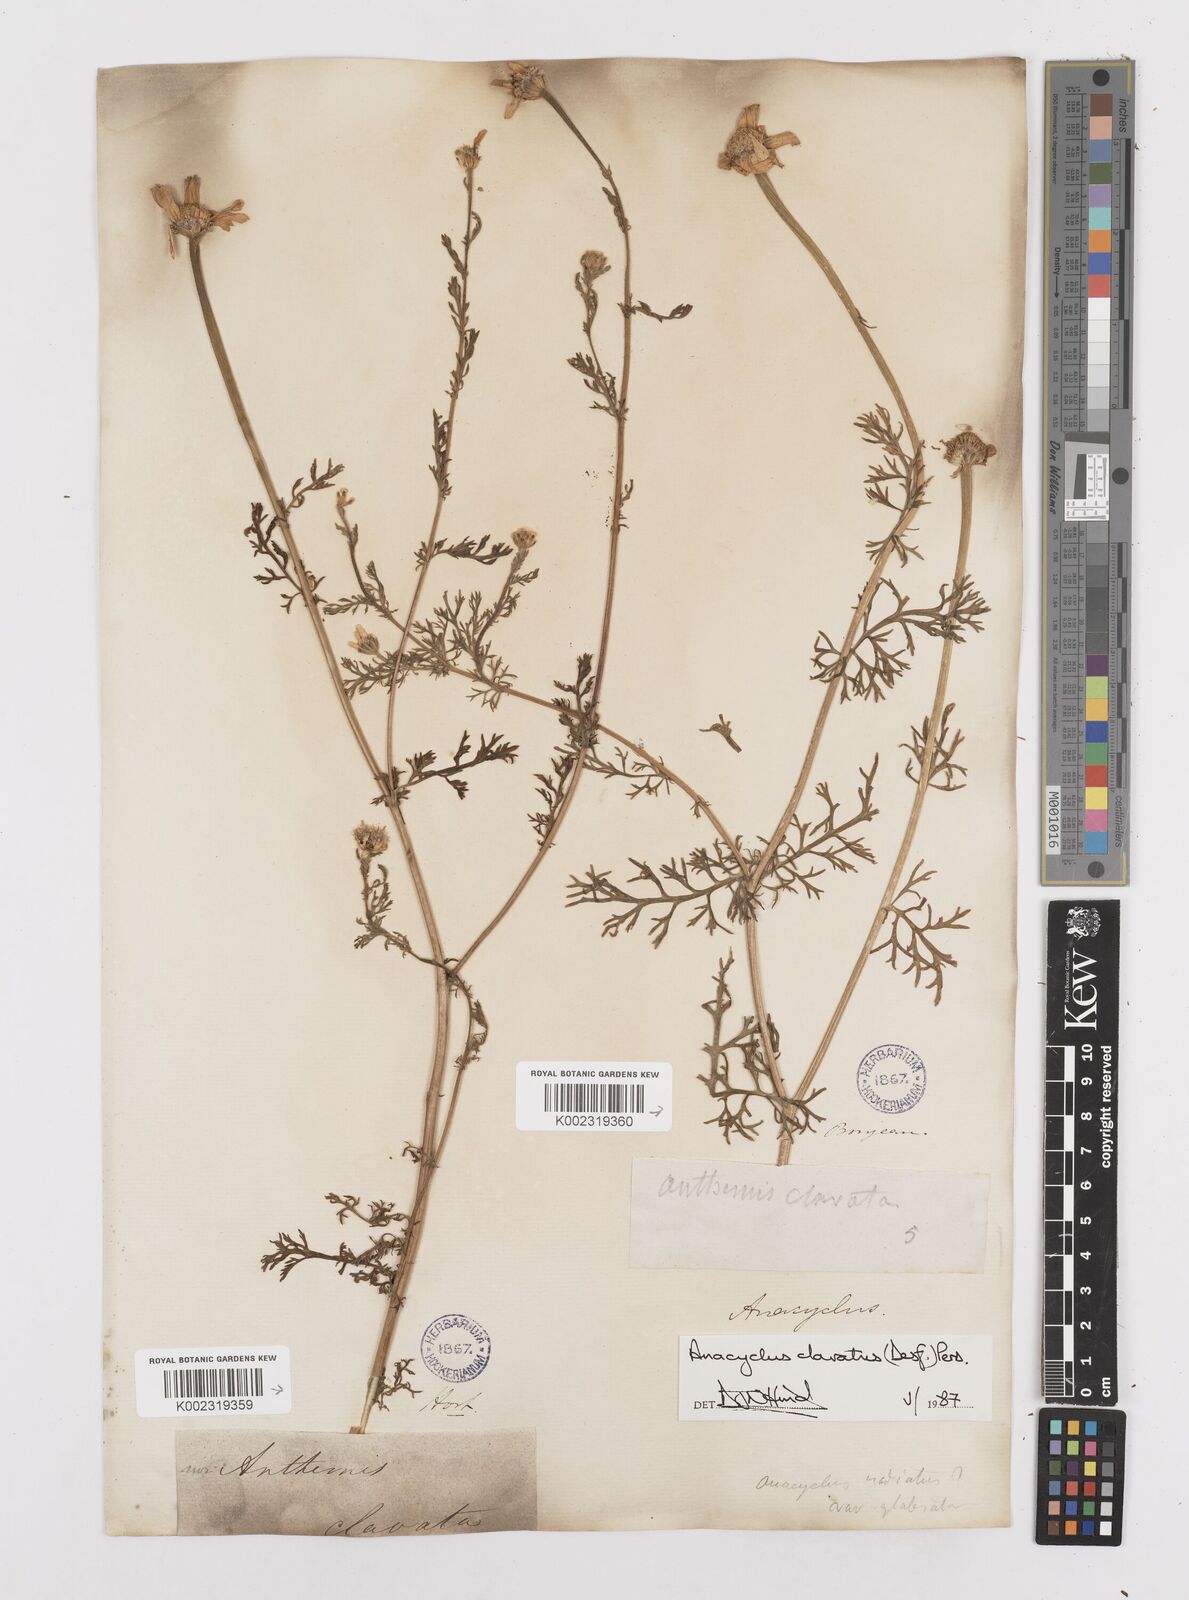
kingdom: Plantae
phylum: Tracheophyta
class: Magnoliopsida
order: Asterales
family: Asteraceae
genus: Anacyclus
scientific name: Anacyclus clavatus
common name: Whitebuttons
